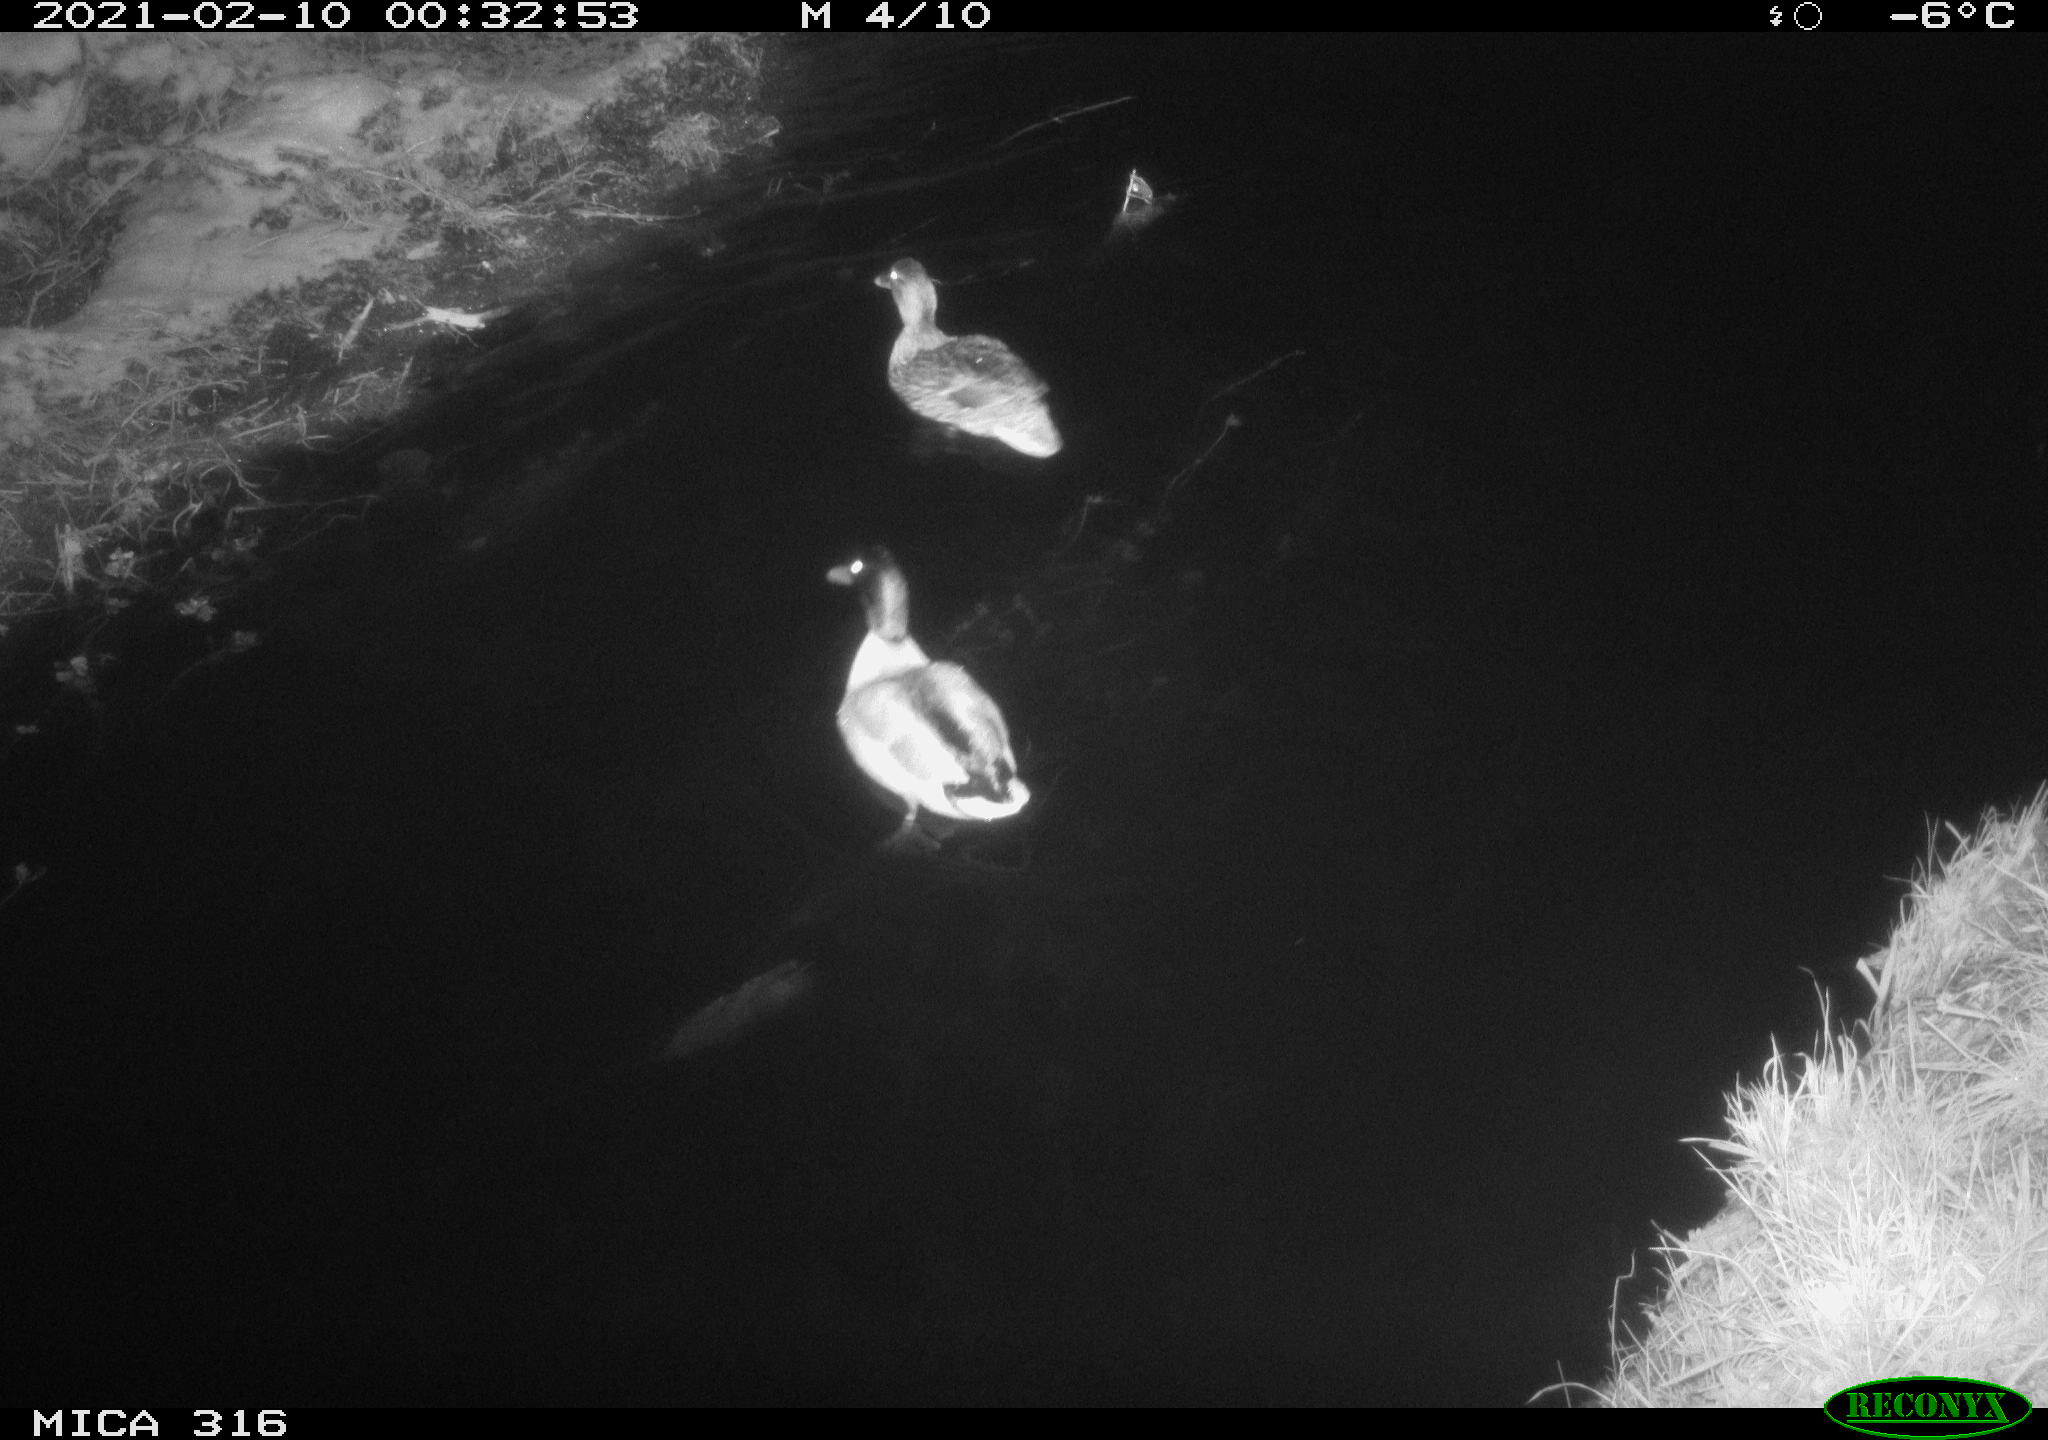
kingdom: Animalia
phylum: Chordata
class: Aves
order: Anseriformes
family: Anatidae
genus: Anas
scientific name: Anas platyrhynchos
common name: Mallard
